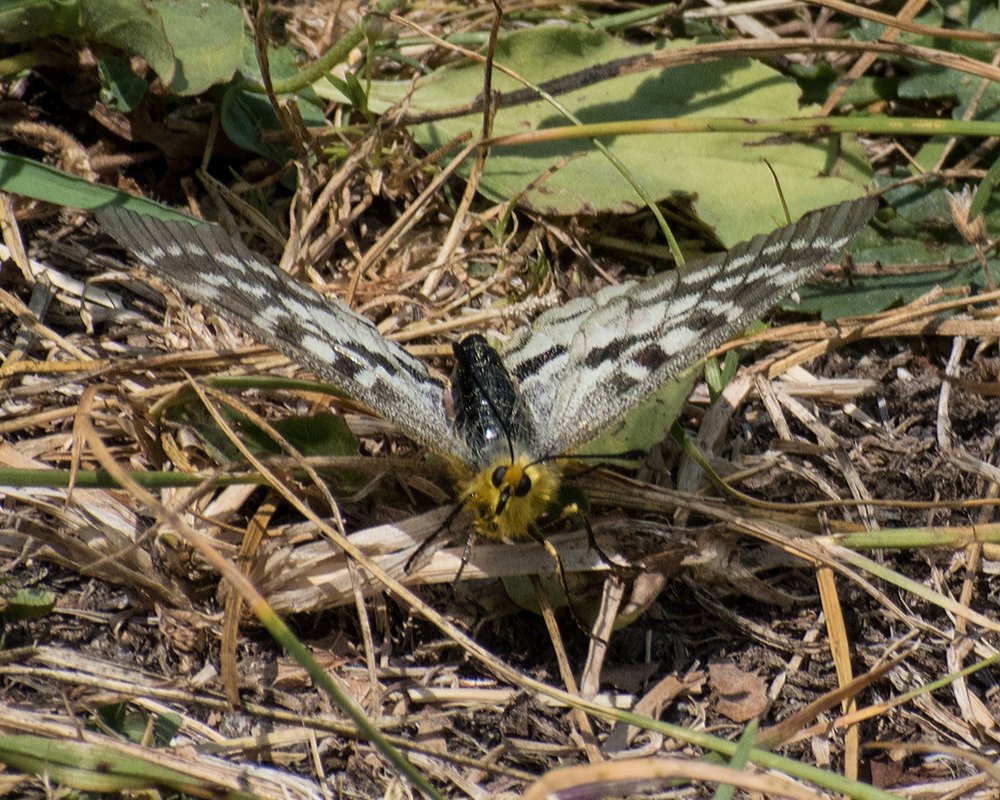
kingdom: Animalia
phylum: Arthropoda
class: Insecta
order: Lepidoptera
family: Papilionidae
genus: Parnassius
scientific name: Parnassius clodius
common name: Clodius Parnassian
